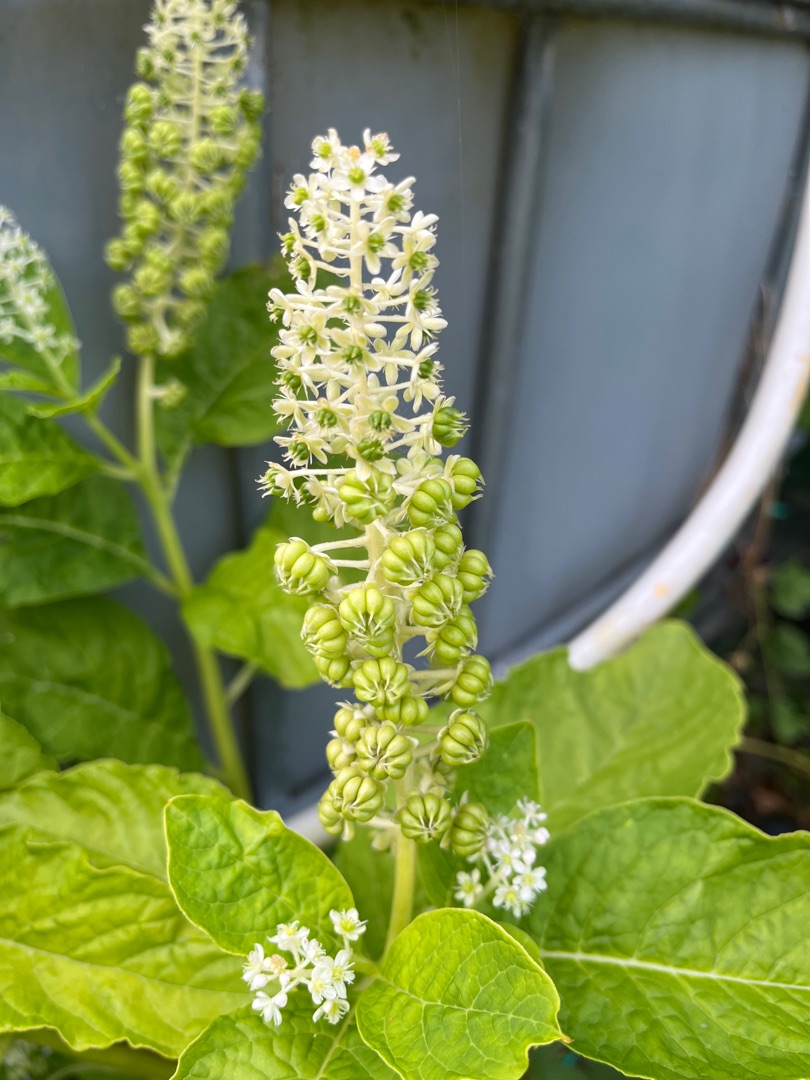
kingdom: Plantae
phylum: Tracheophyta
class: Magnoliopsida
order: Caryophyllales
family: Phytolaccaceae
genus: Phytolacca
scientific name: Phytolacca acinosa
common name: Asiatisk kermesbær
